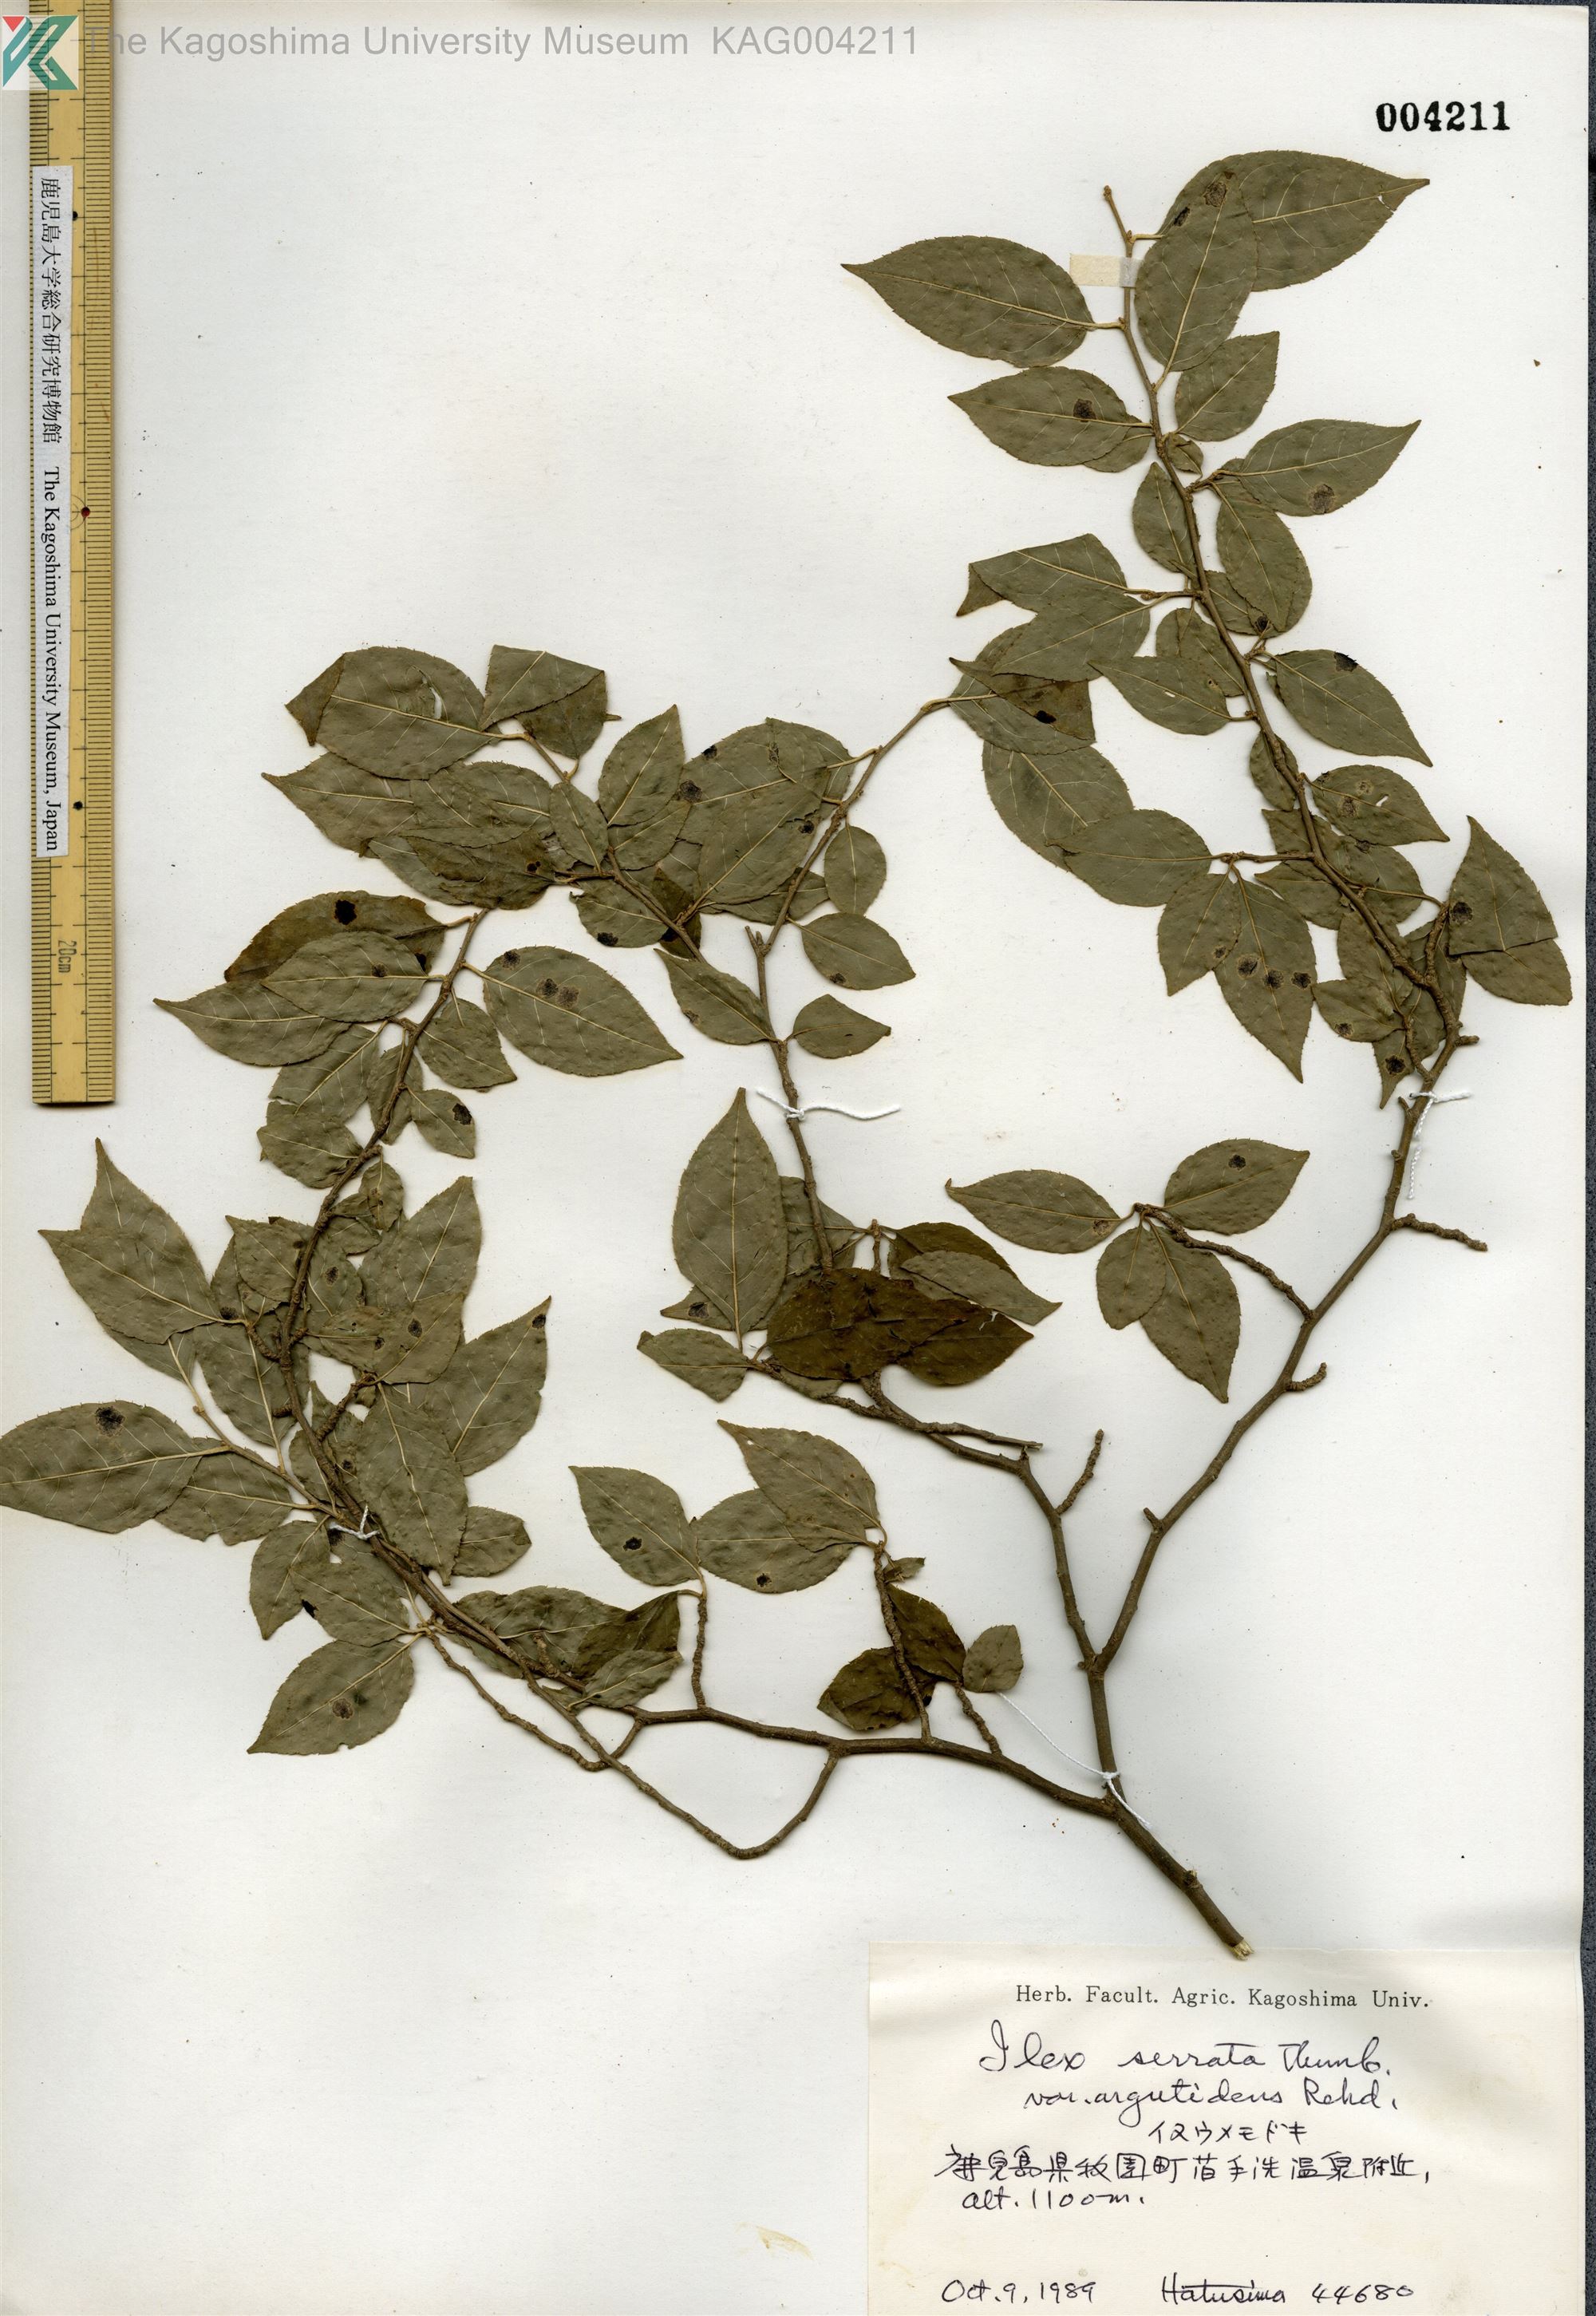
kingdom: Plantae
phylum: Tracheophyta
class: Magnoliopsida
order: Aquifoliales
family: Aquifoliaceae
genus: Ilex
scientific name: Ilex serrata
